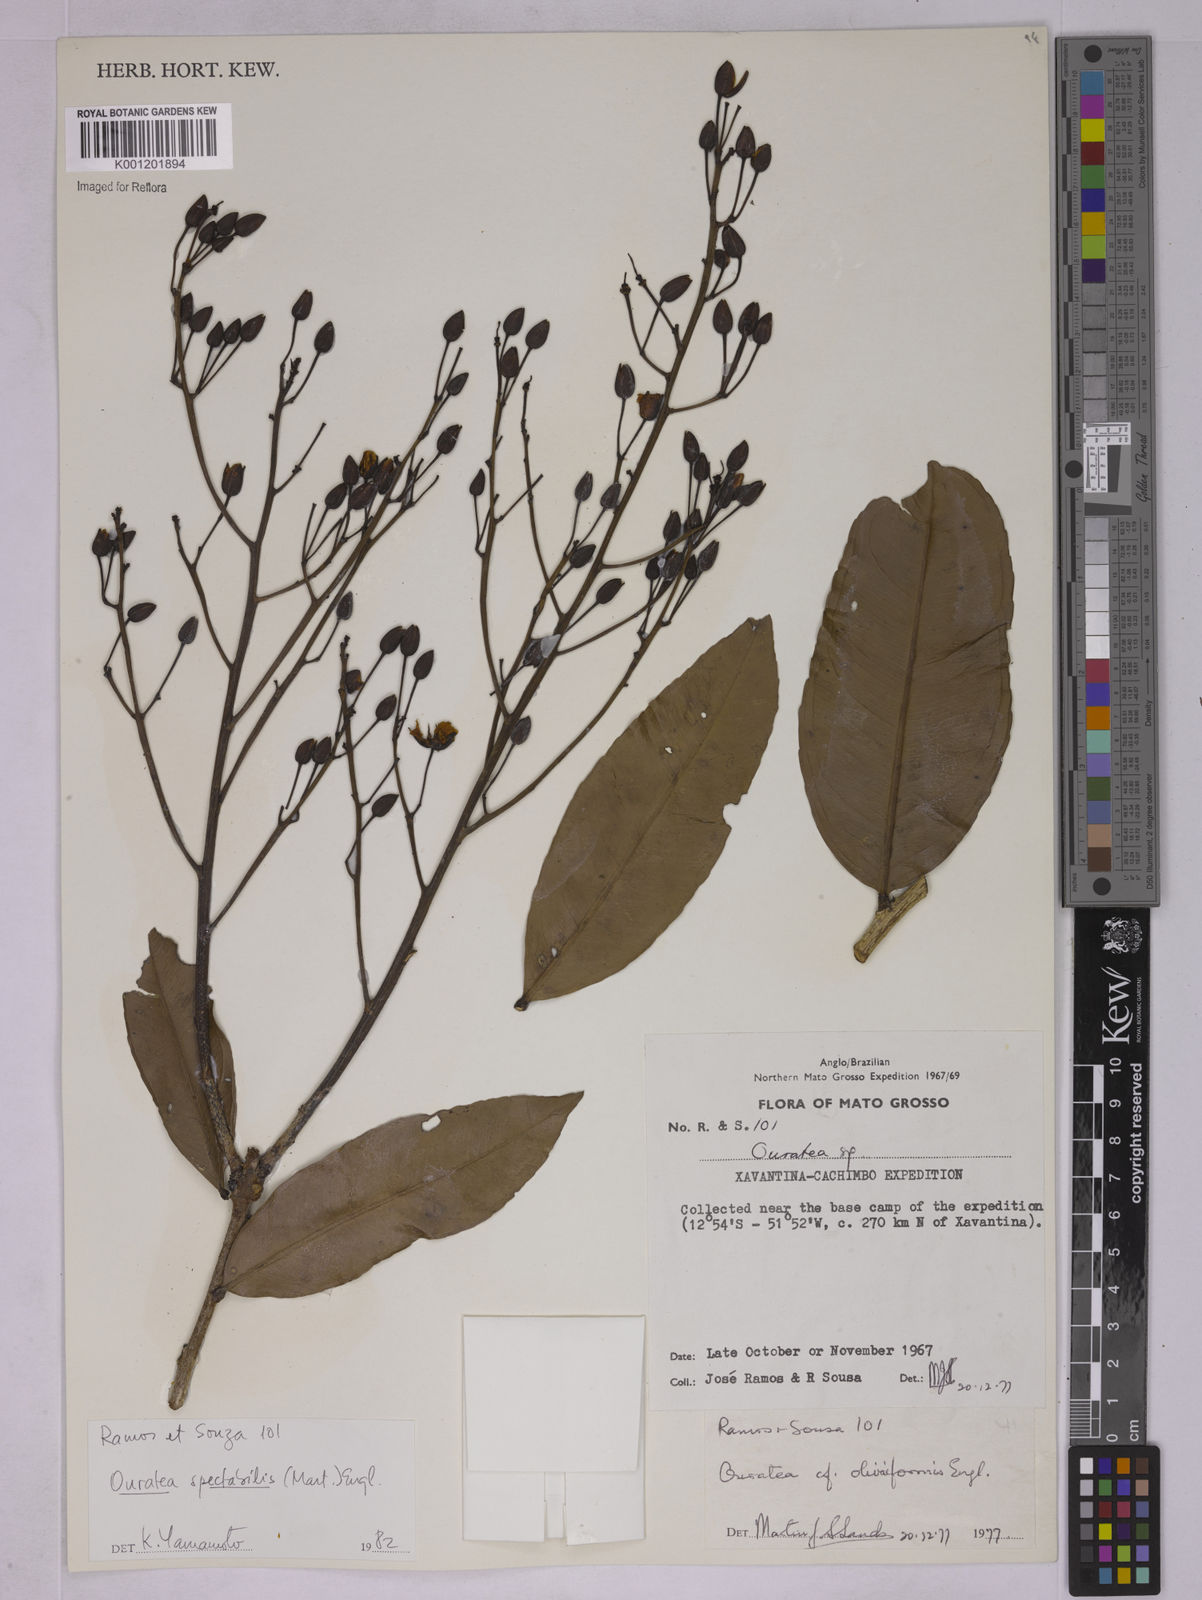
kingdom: Plantae
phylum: Tracheophyta
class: Magnoliopsida
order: Malpighiales
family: Ochnaceae
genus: Ouratea
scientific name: Ouratea spectabilis
